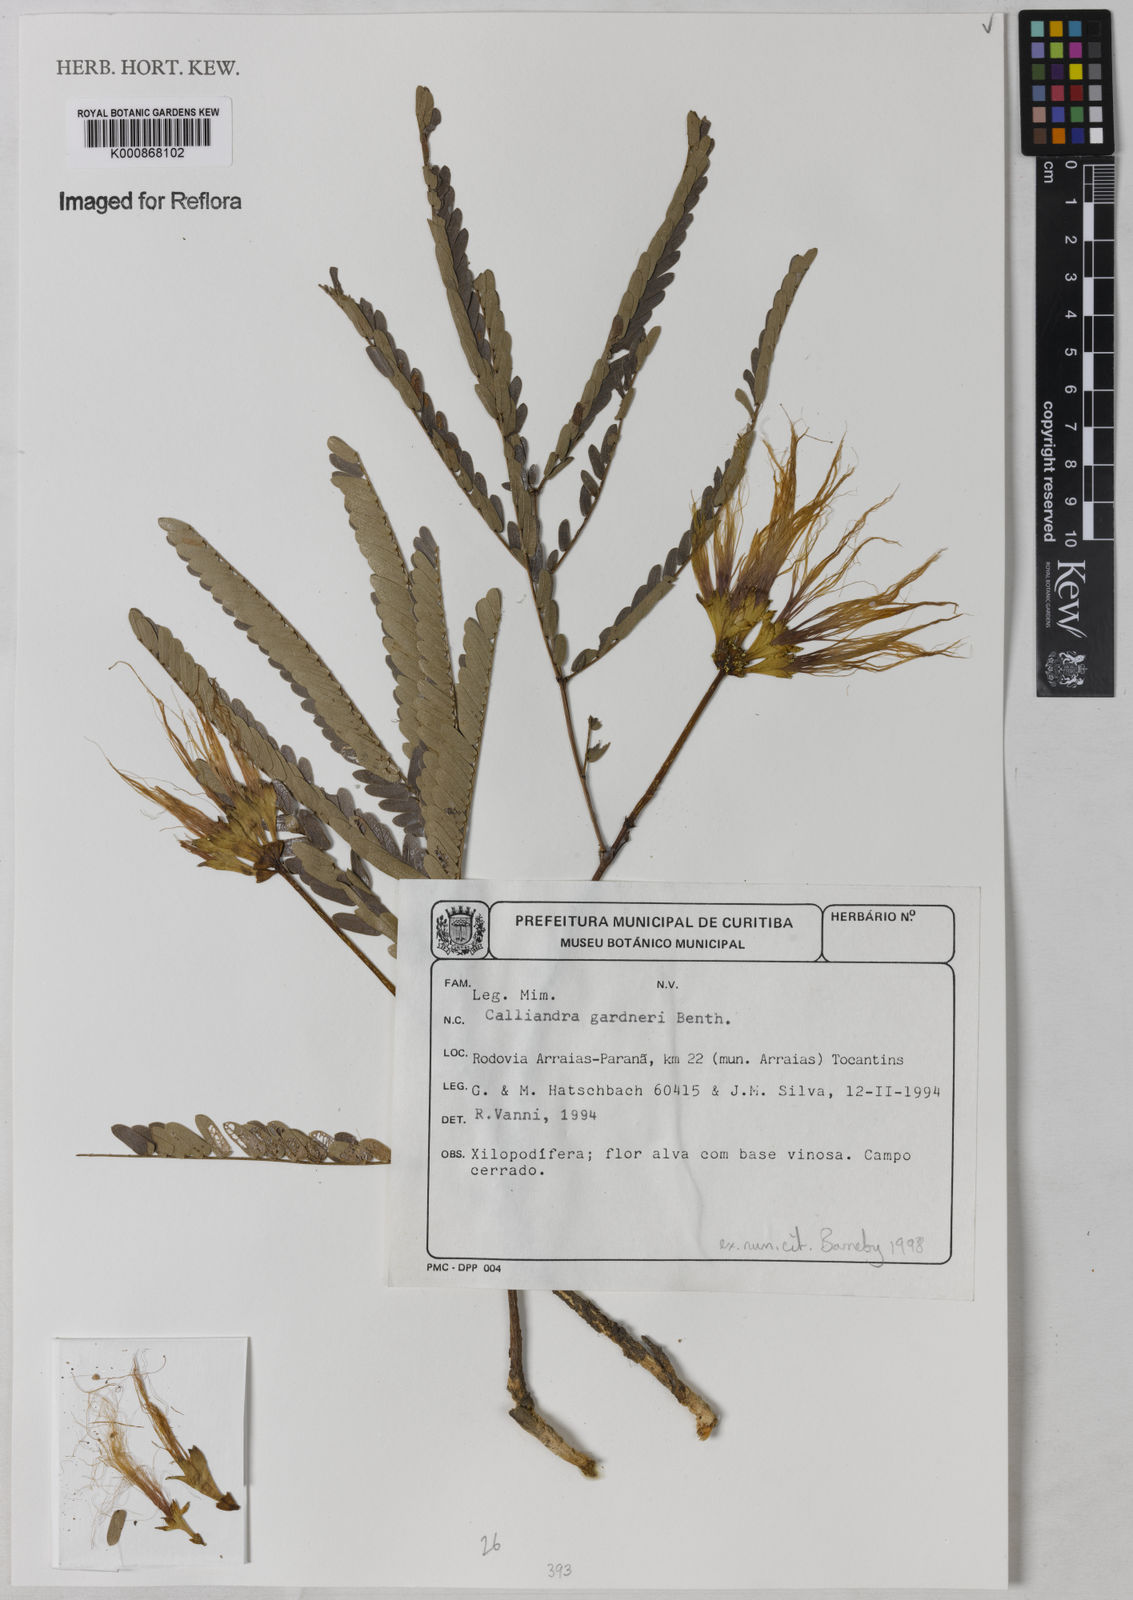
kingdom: Plantae
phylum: Tracheophyta
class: Magnoliopsida
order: Fabales
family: Fabaceae
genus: Calliandra
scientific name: Calliandra gardneri
